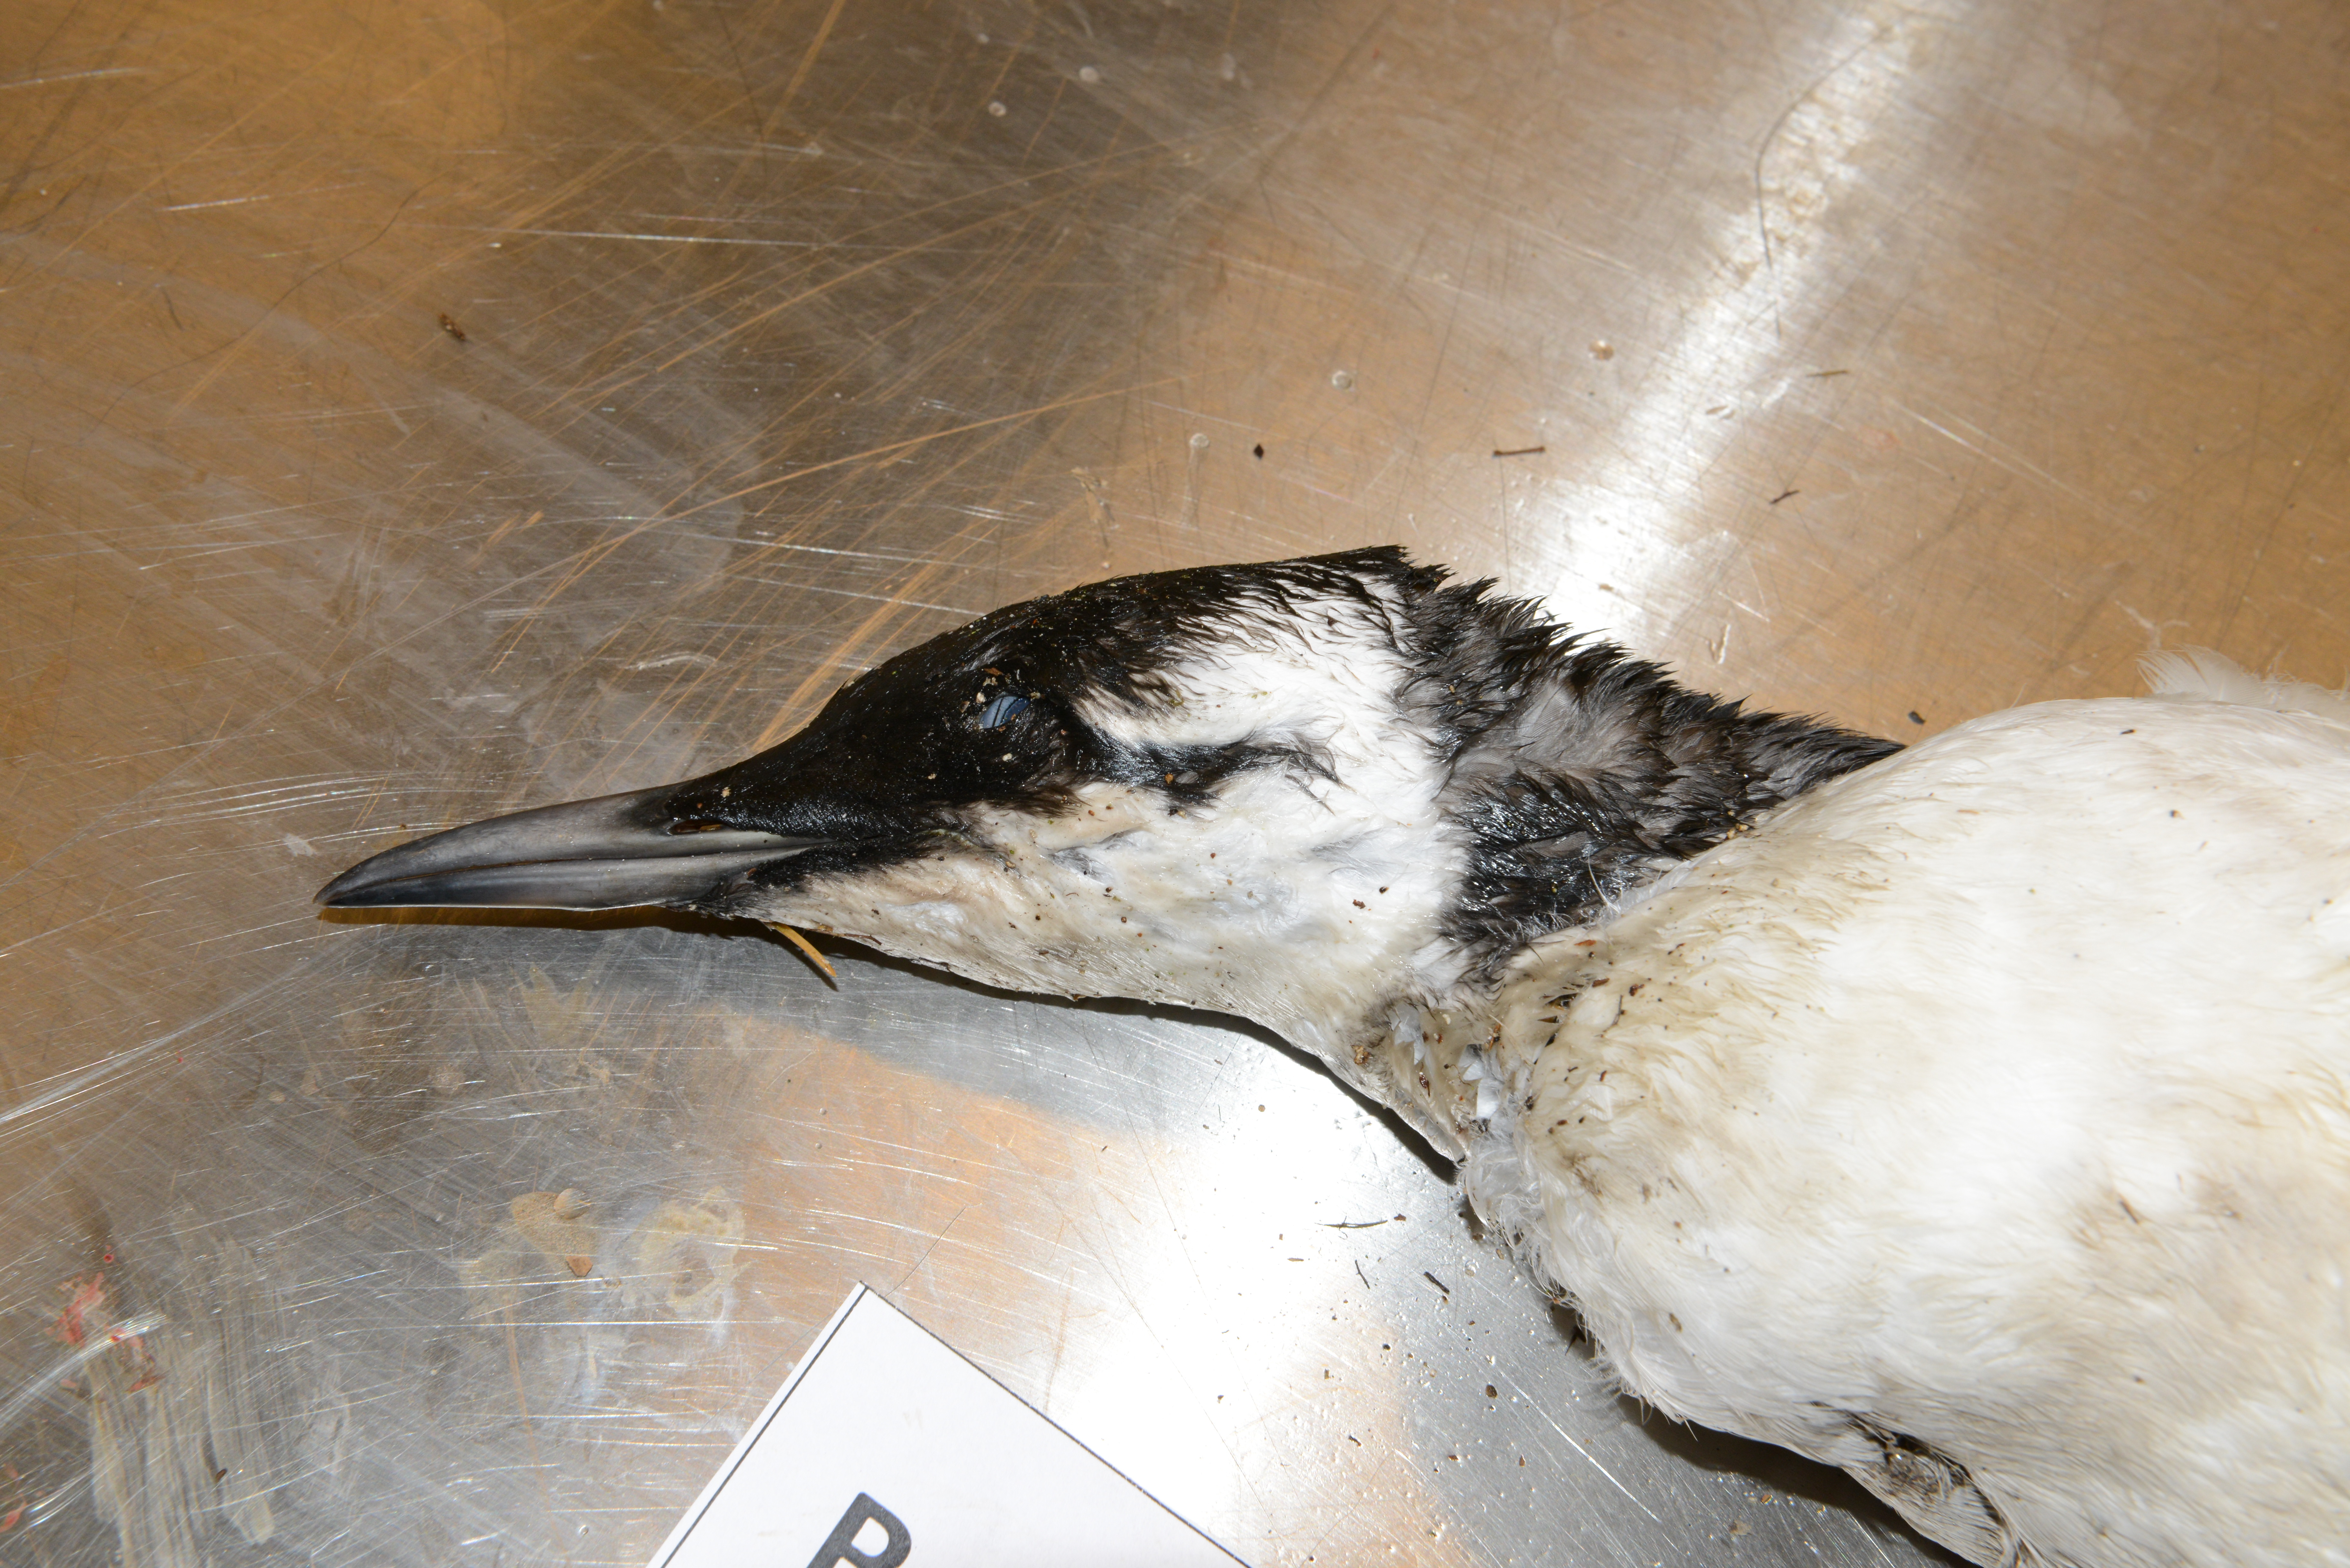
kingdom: Animalia
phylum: Chordata
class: Aves
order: Charadriiformes
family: Alcidae
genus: Uria
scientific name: Uria aalge
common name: Common murre
